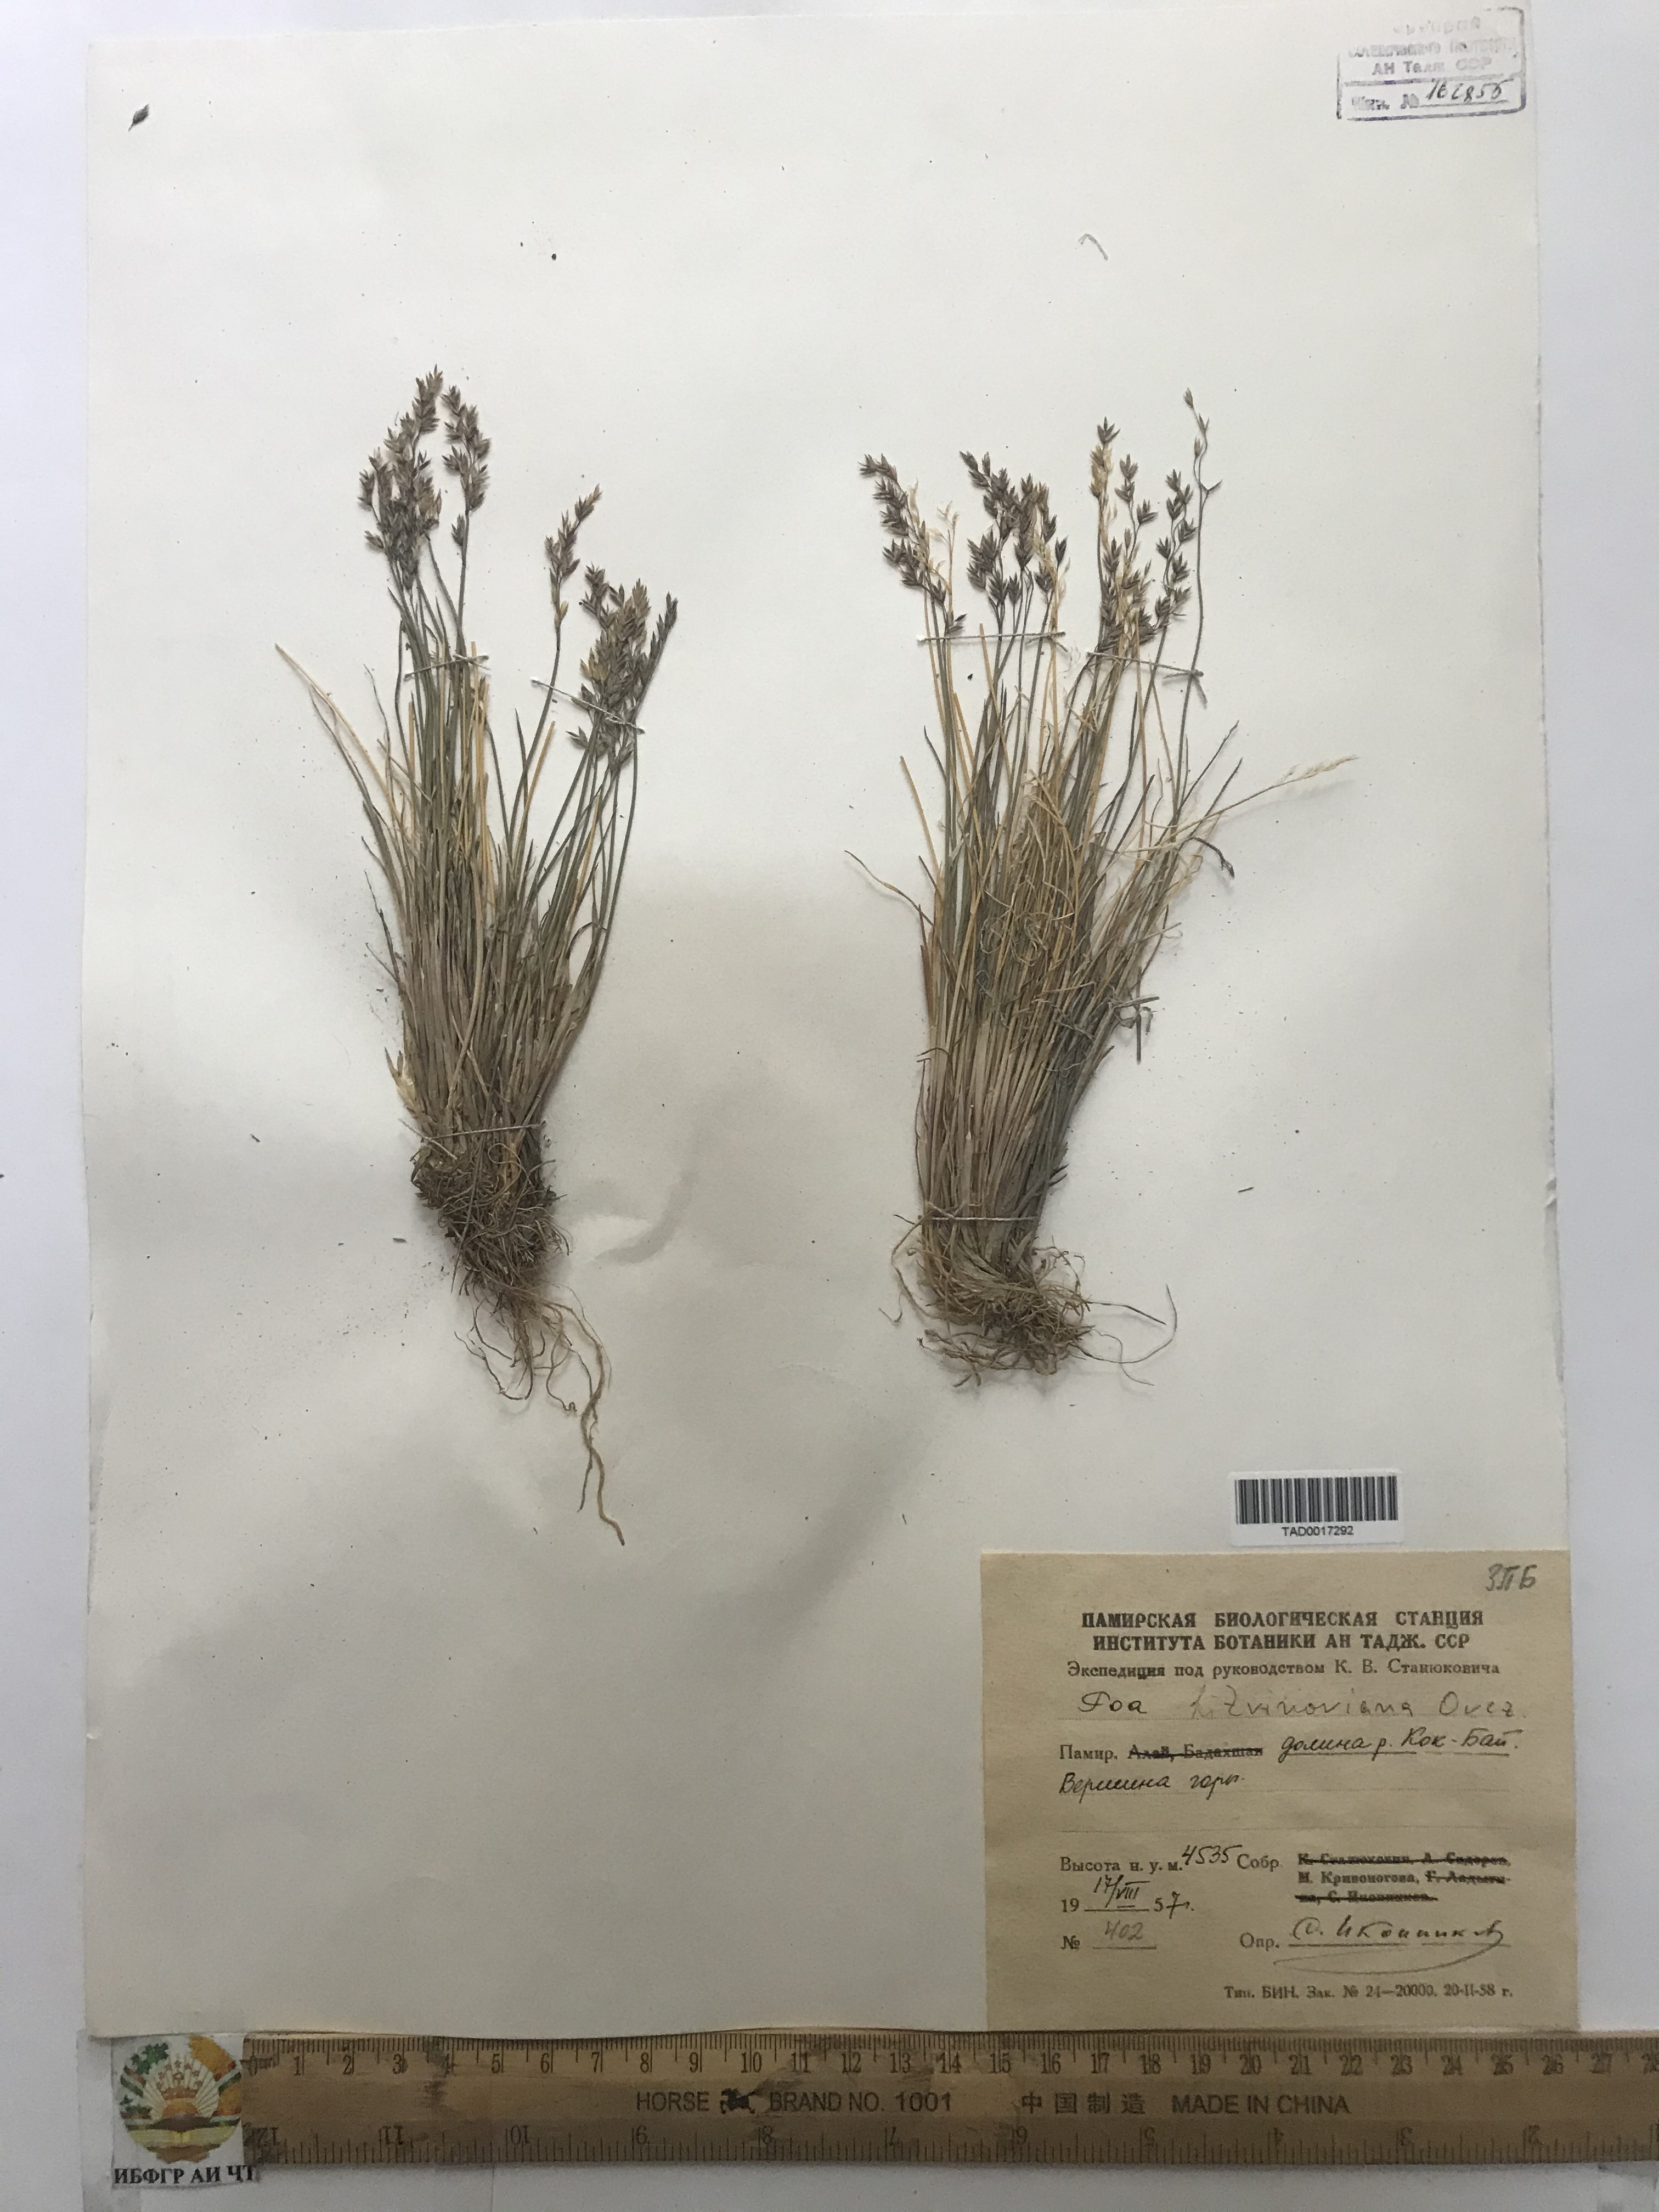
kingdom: Plantae
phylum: Tracheophyta
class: Liliopsida
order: Poales
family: Poaceae
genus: Poa
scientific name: Poa glauca
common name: Glaucous bluegrass
